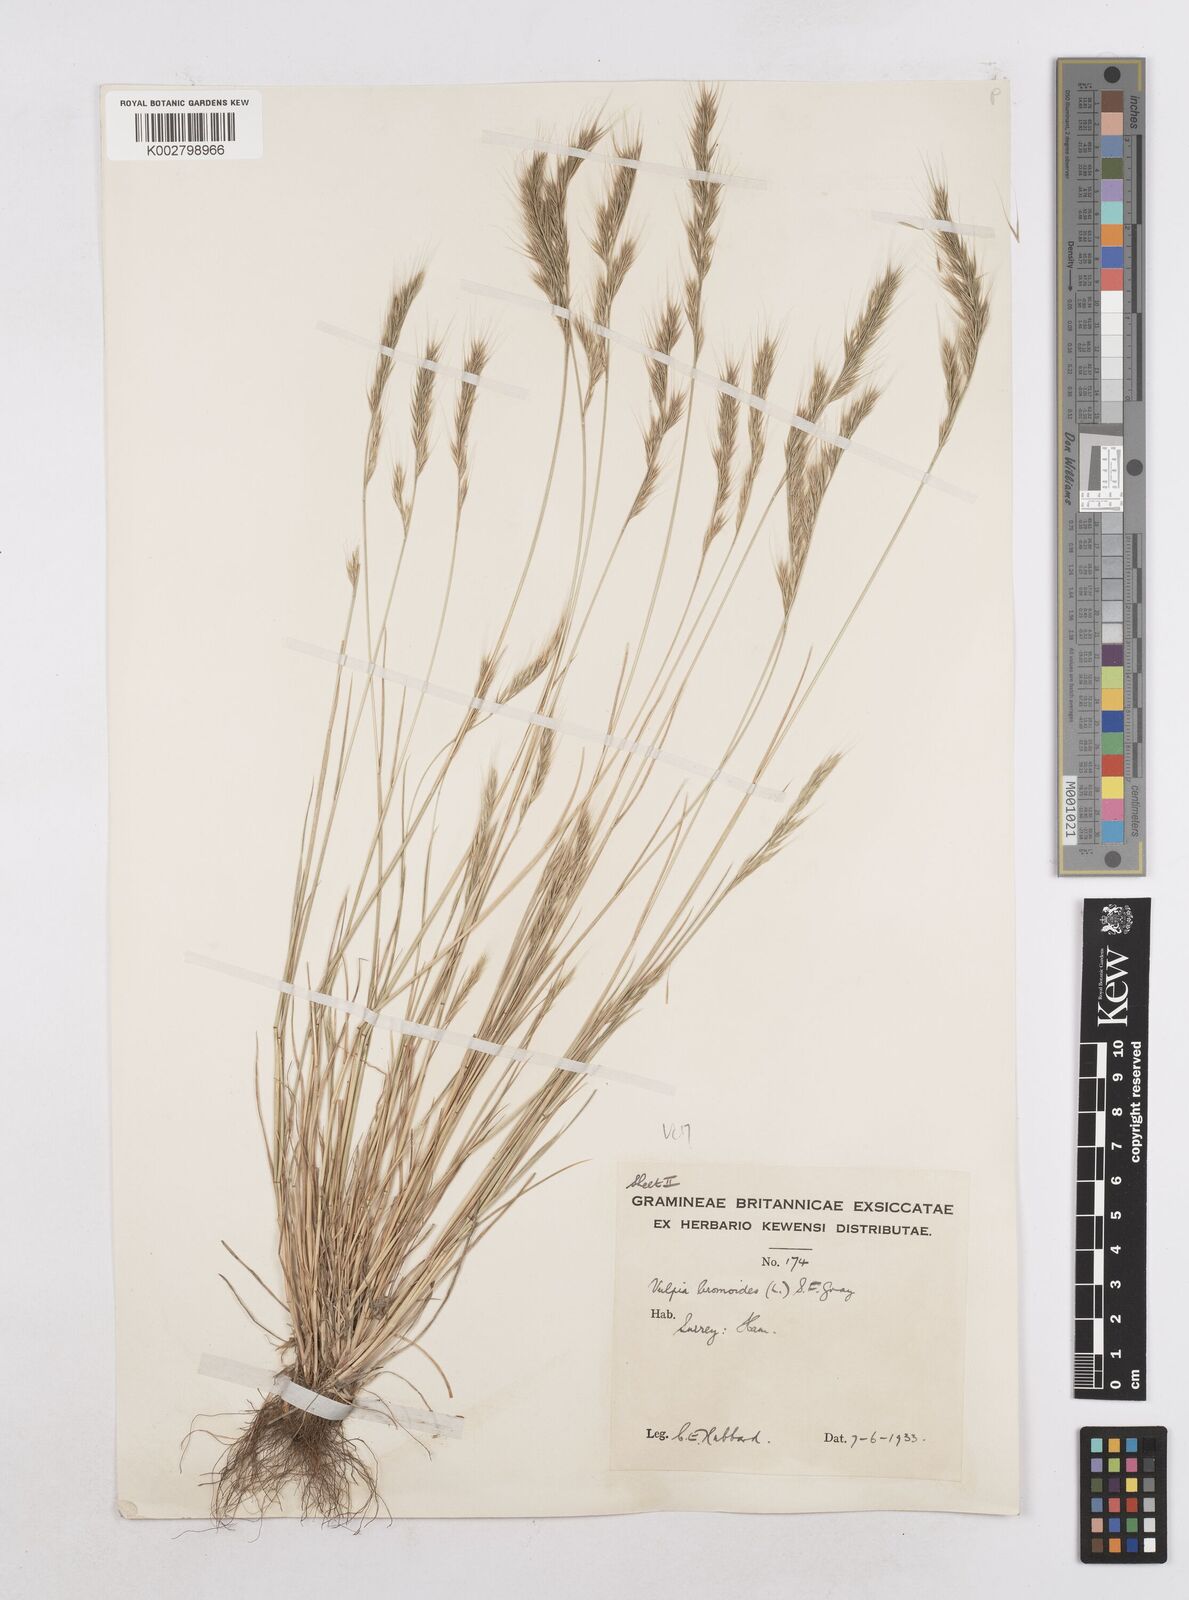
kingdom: Plantae
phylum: Tracheophyta
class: Liliopsida
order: Poales
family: Poaceae
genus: Festuca
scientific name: Festuca bromoides
